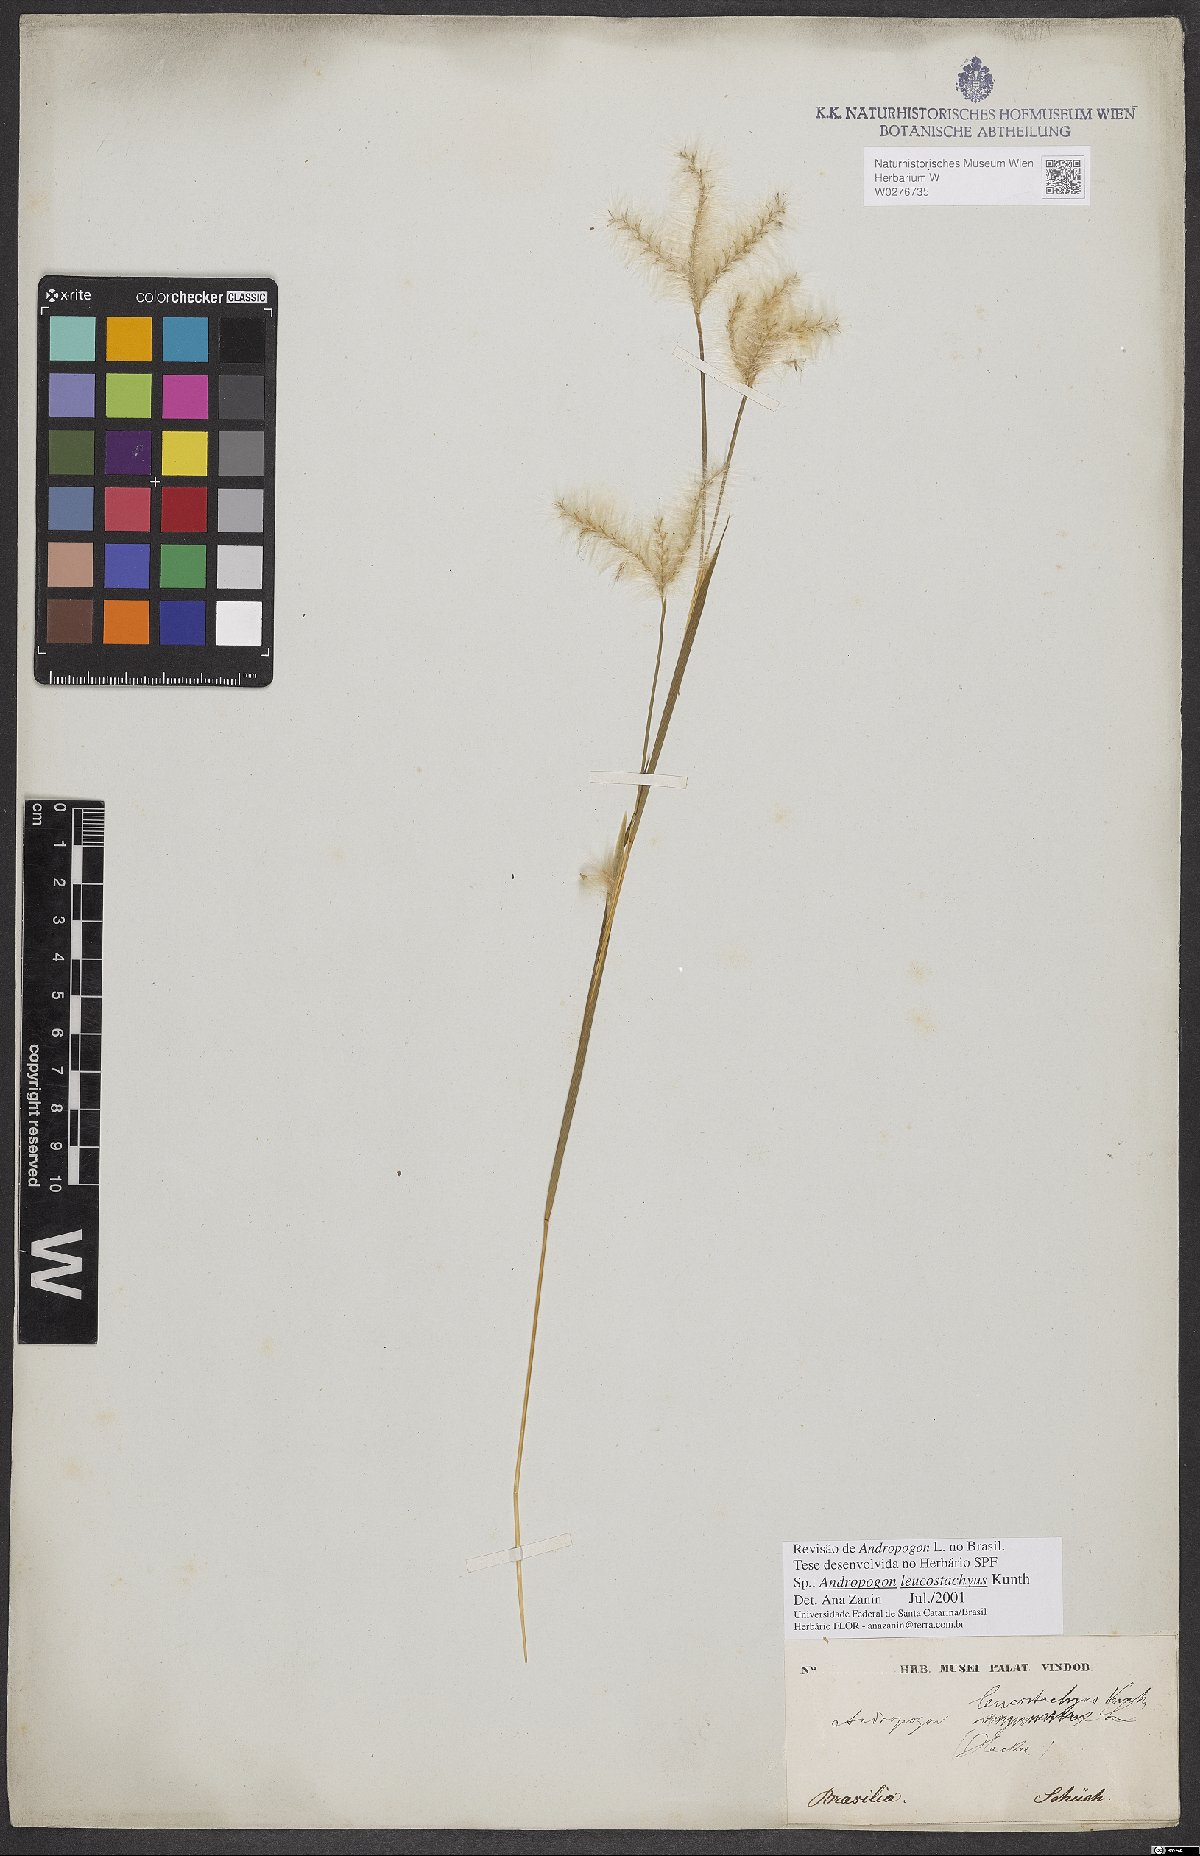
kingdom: Plantae
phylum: Tracheophyta
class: Liliopsida
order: Poales
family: Poaceae
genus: Andropogon
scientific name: Andropogon leucostachyus
